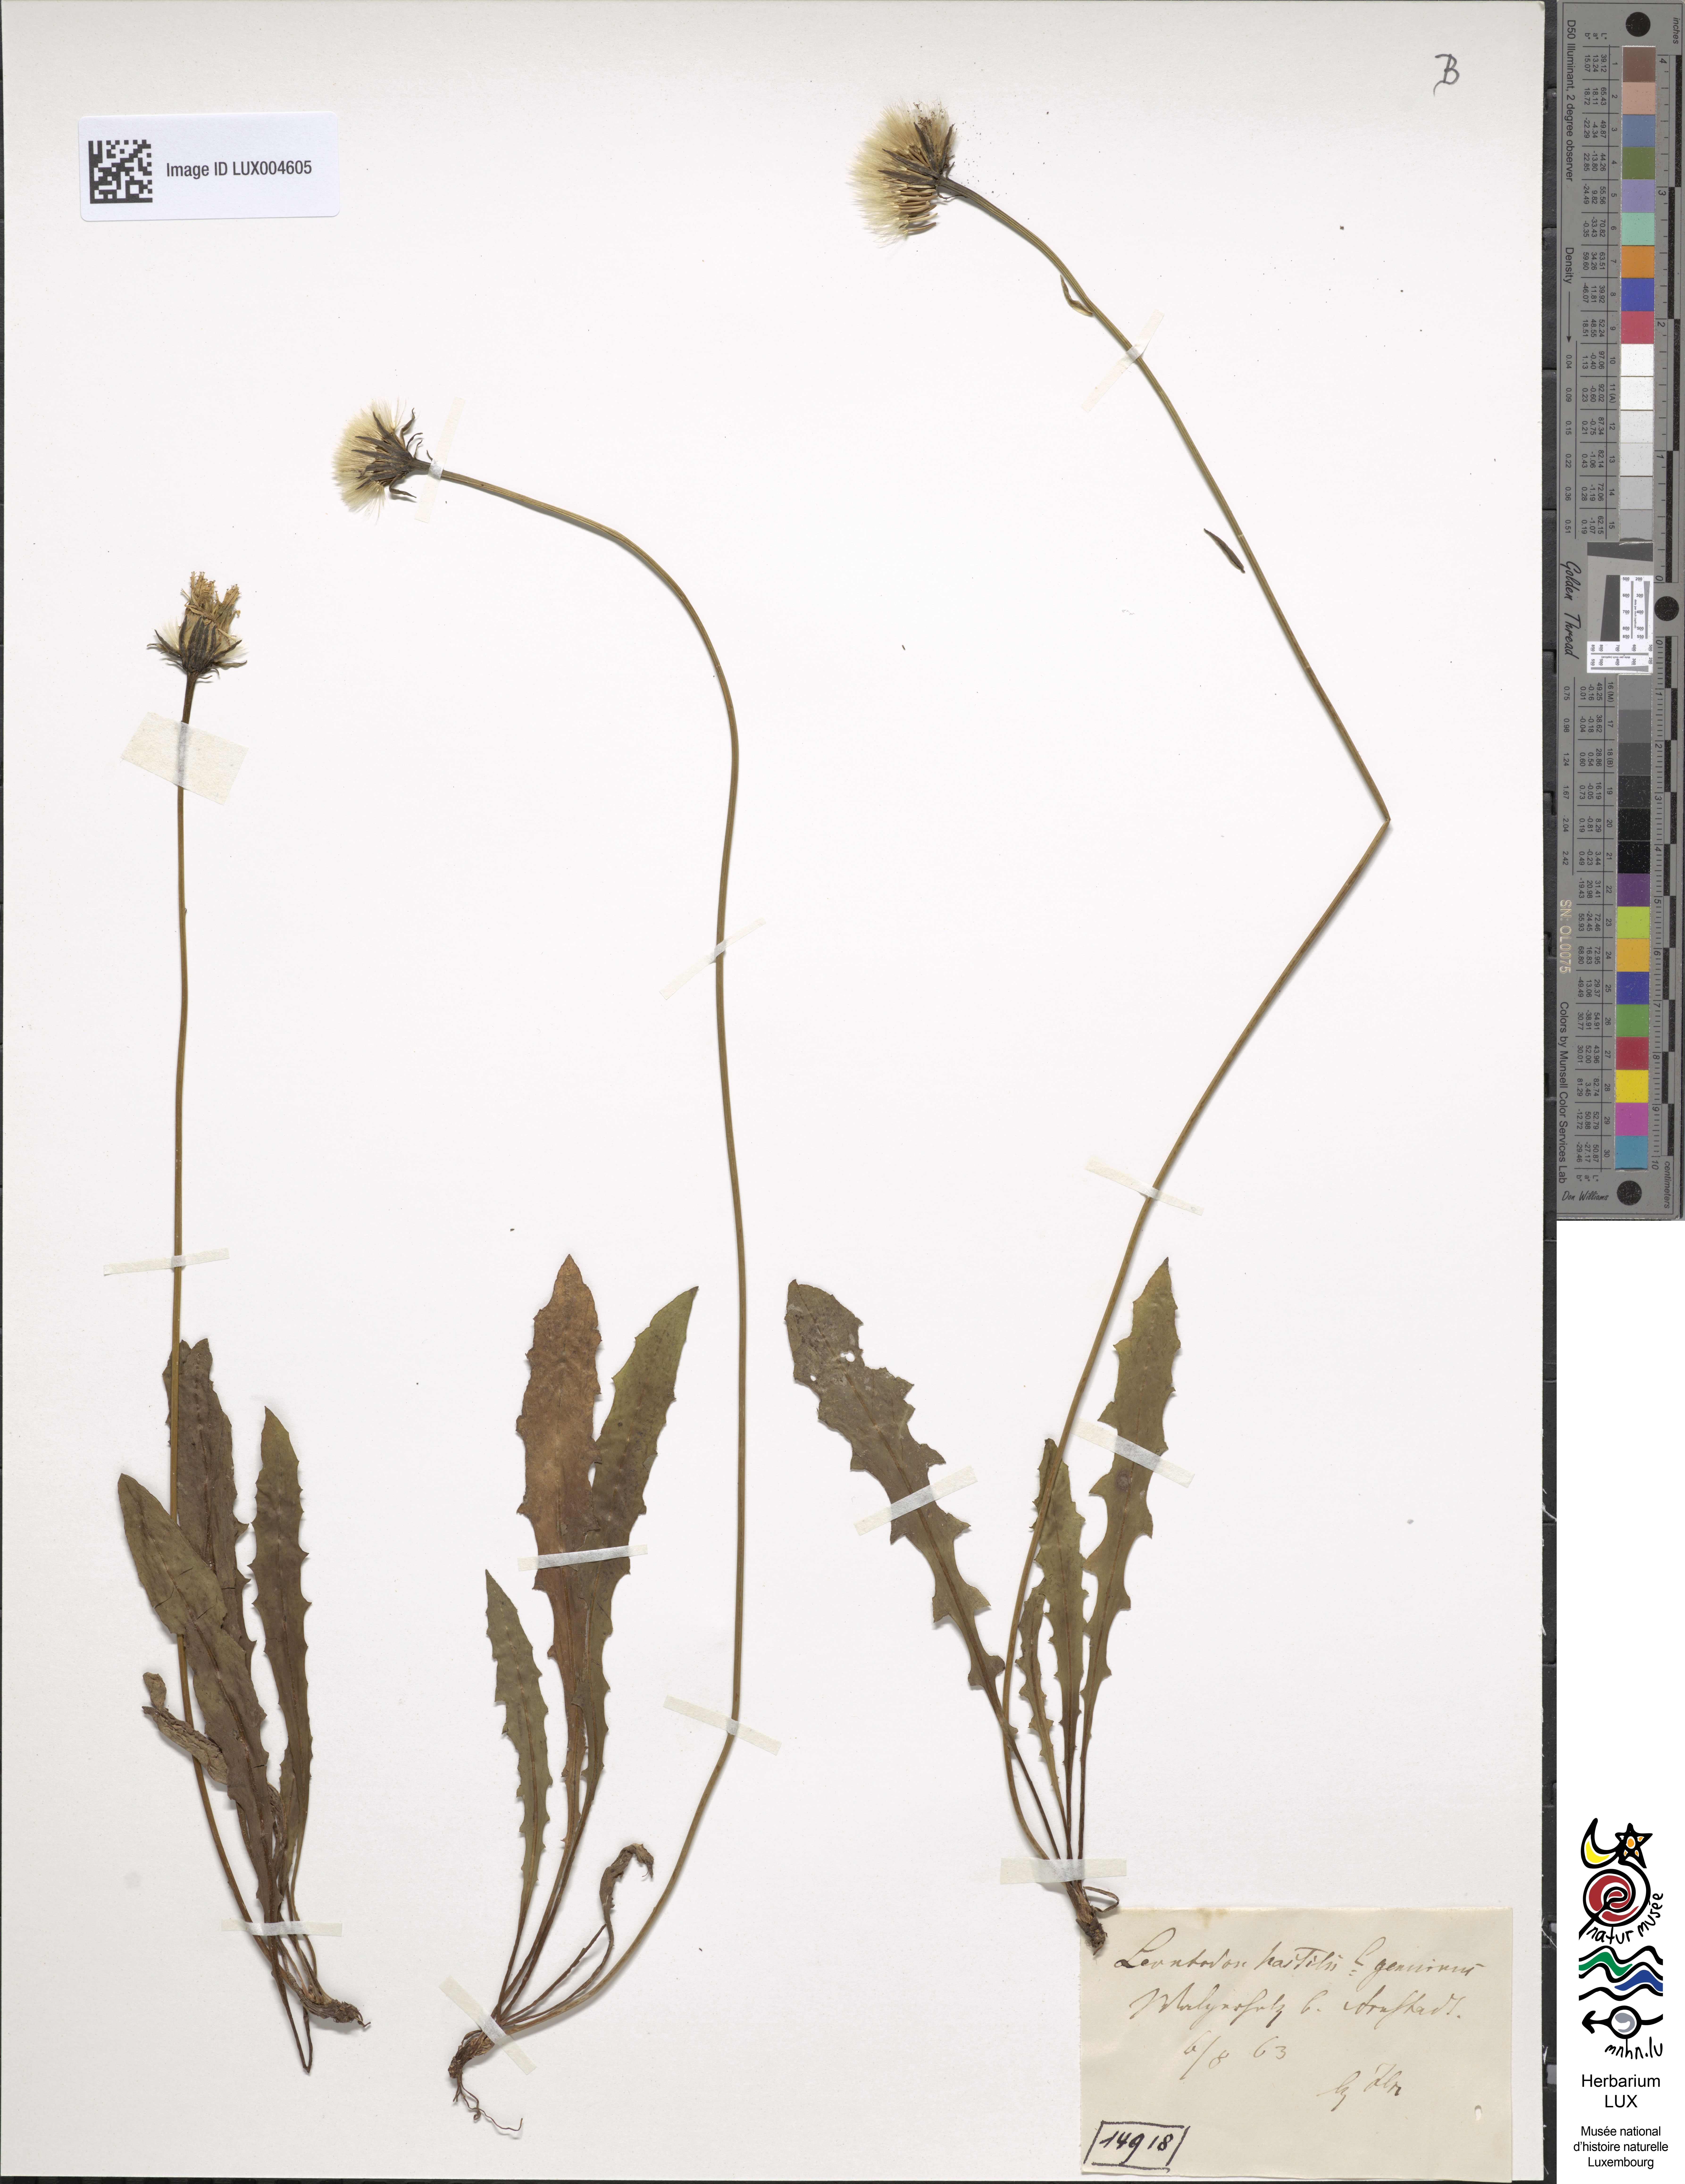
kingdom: Plantae
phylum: Tracheophyta
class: Magnoliopsida
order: Asterales
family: Asteraceae
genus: Leontodon
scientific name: Leontodon hispidus
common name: Rough hawkbit
